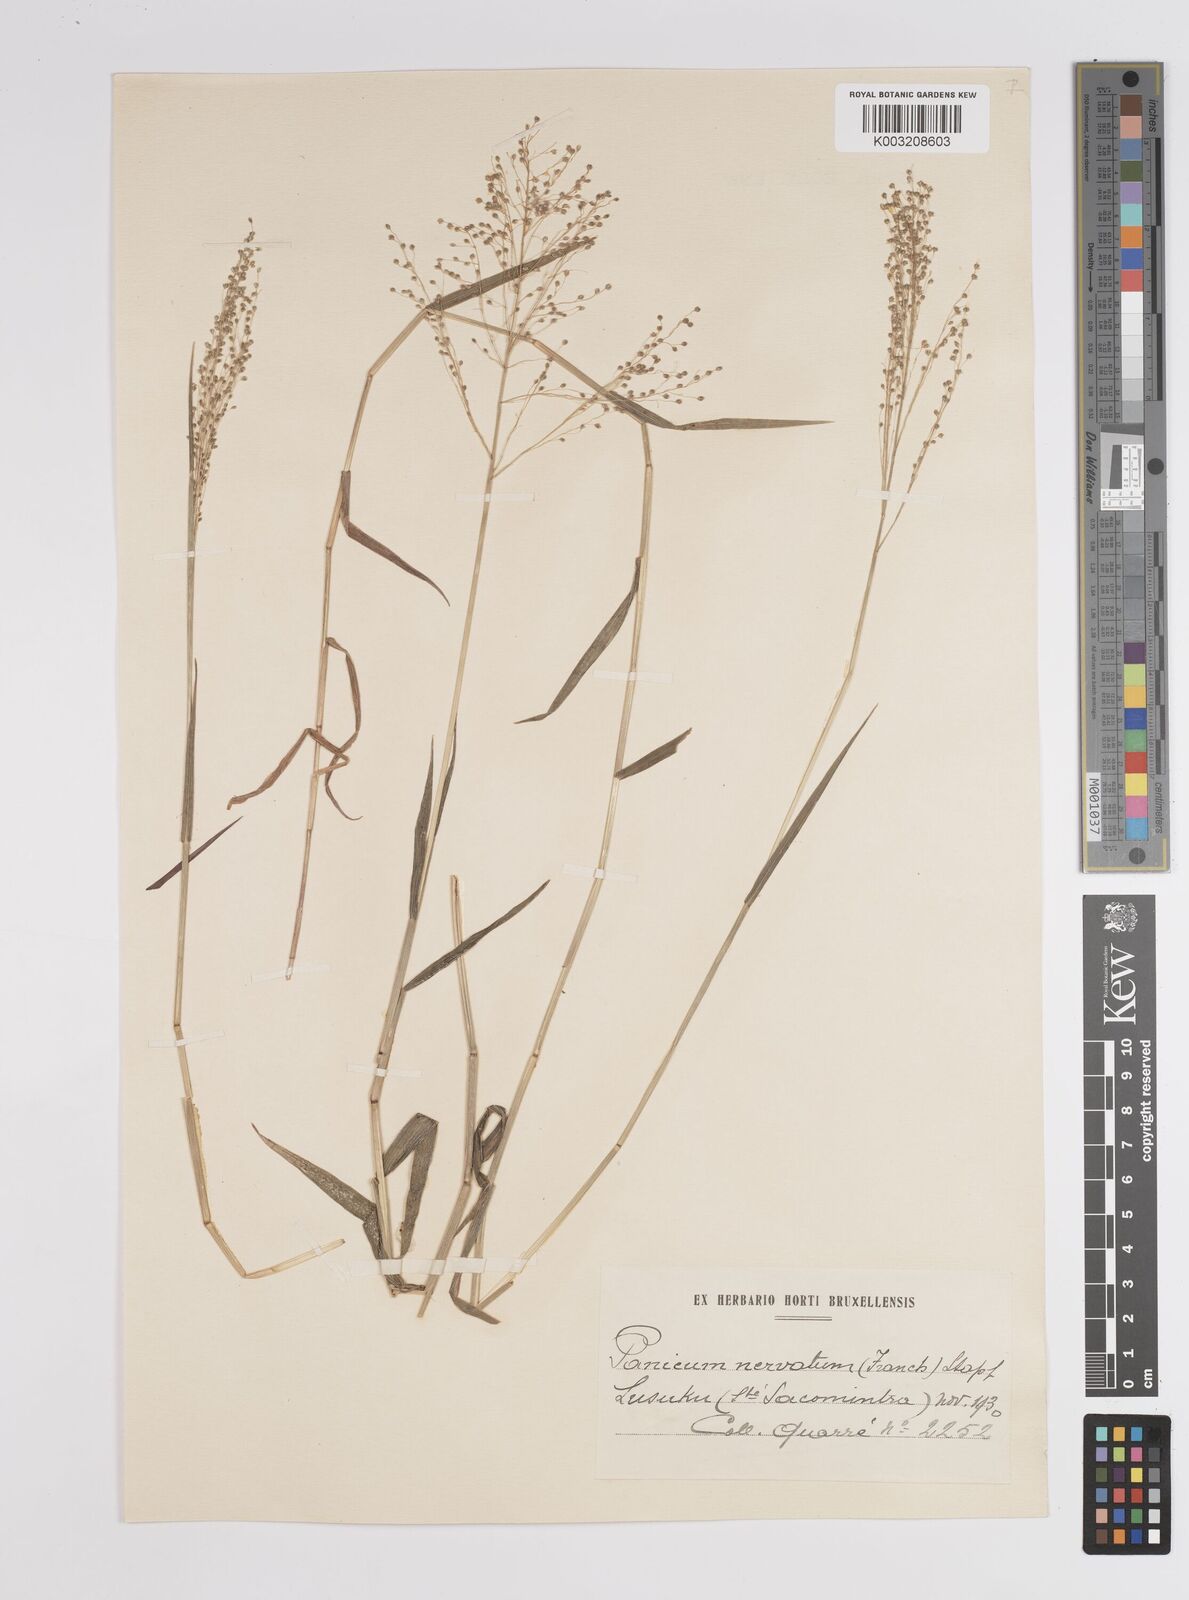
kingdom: Plantae
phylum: Tracheophyta
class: Liliopsida
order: Poales
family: Poaceae
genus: Trichanthecium
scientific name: Trichanthecium nervatum
